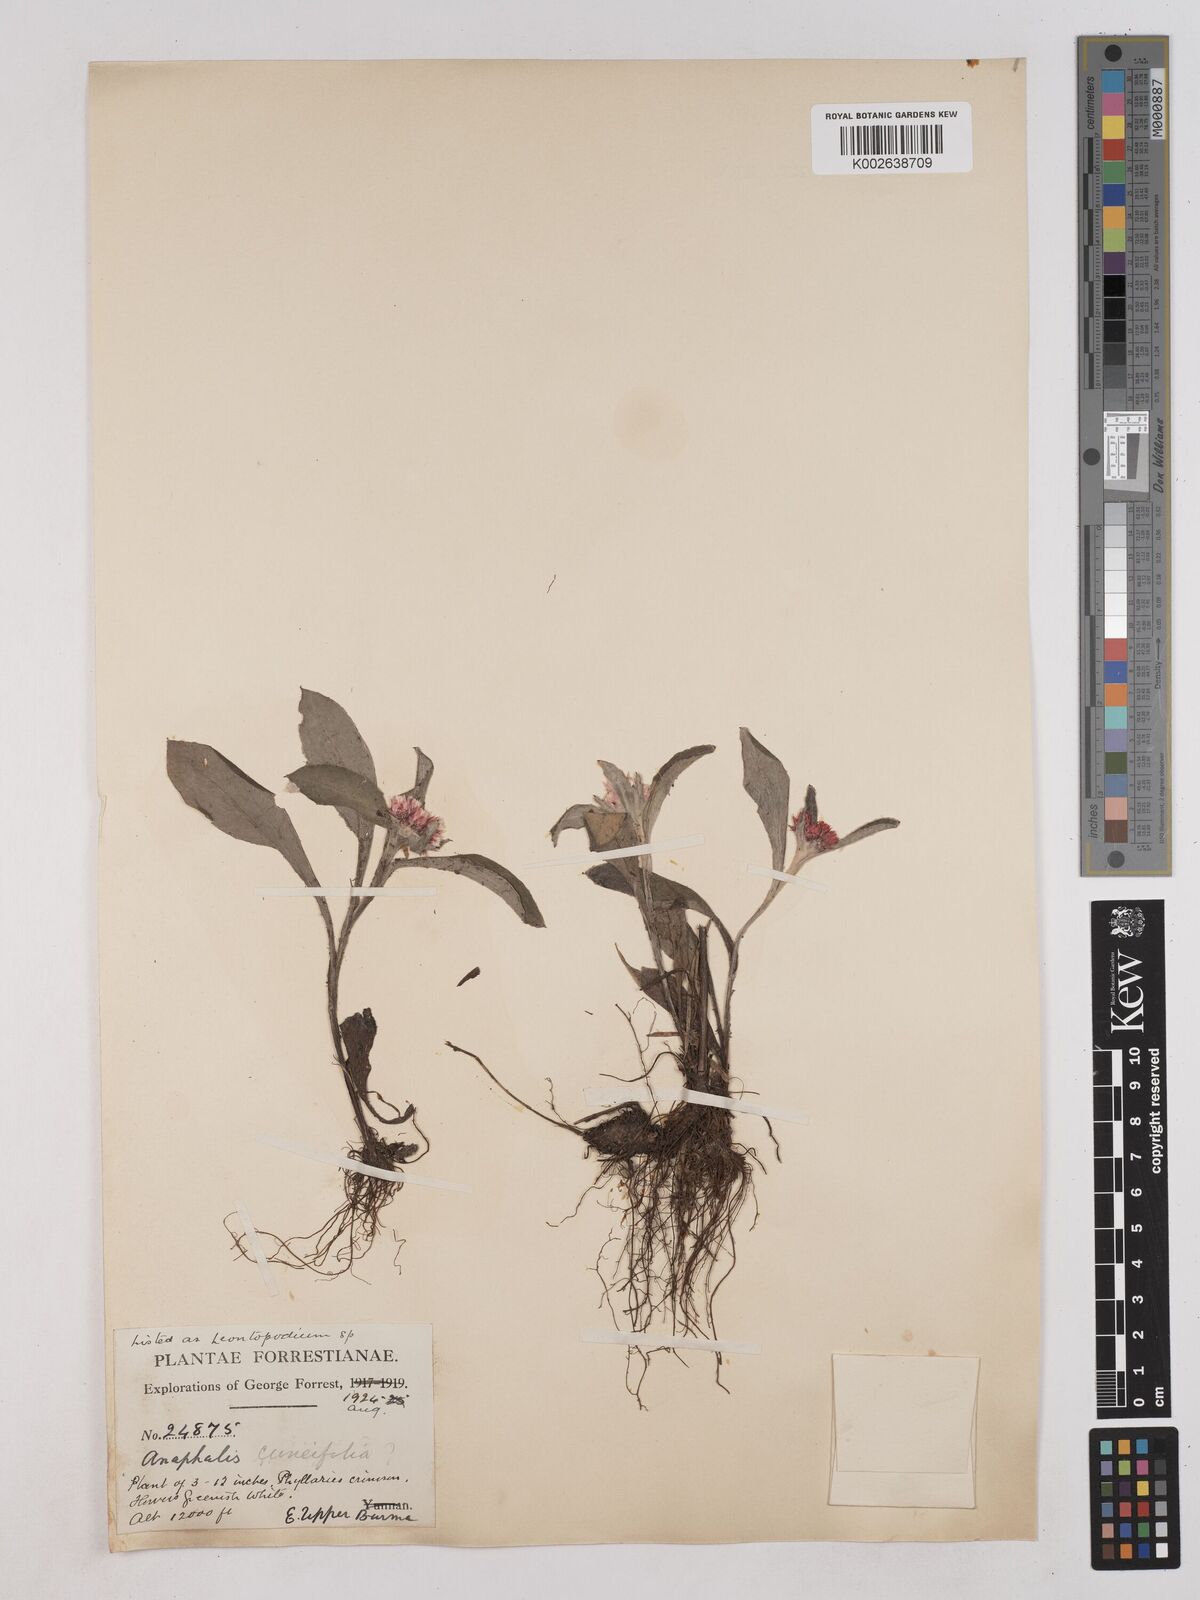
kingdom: Plantae
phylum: Tracheophyta
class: Magnoliopsida
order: Asterales
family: Asteraceae
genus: Anaphalis
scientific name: Anaphalis triplinervis
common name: Pearly everlasting
